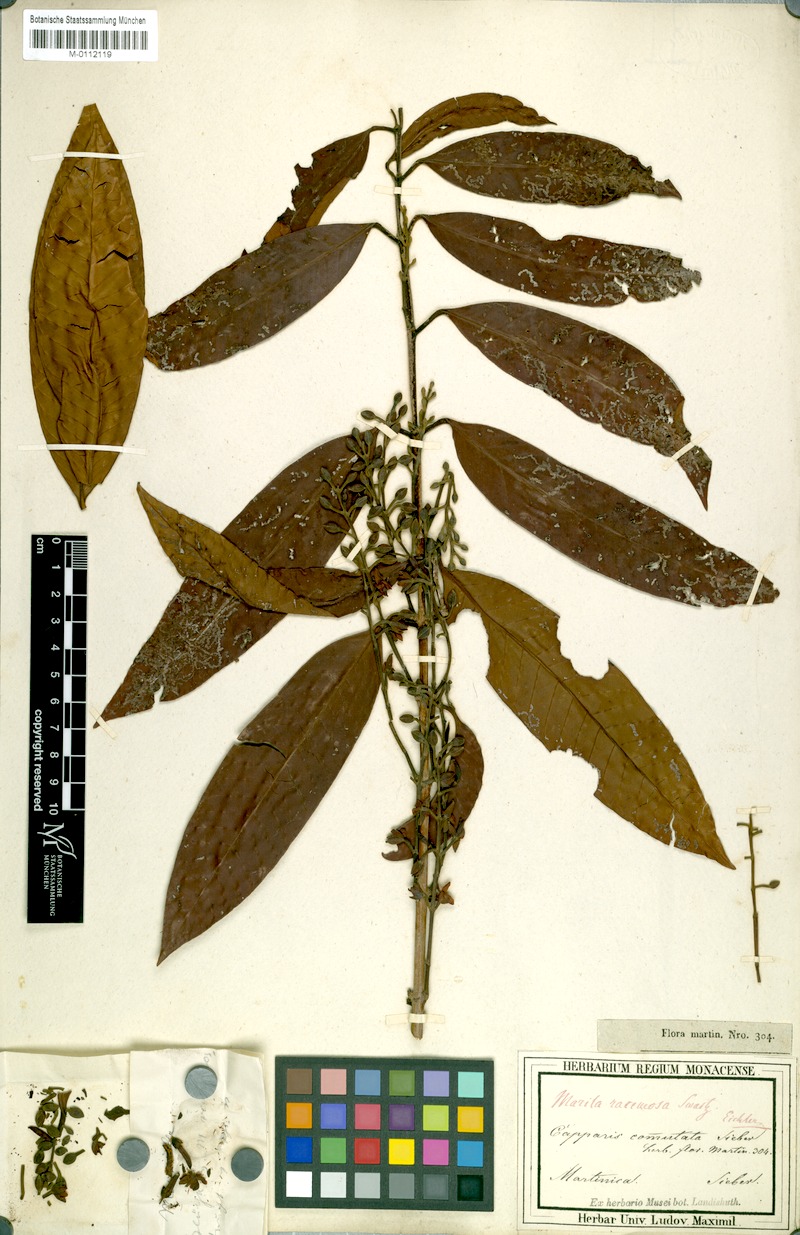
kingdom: Plantae
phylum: Tracheophyta
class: Magnoliopsida
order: Malpighiales
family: Calophyllaceae
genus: Marila
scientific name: Marila racemosa
